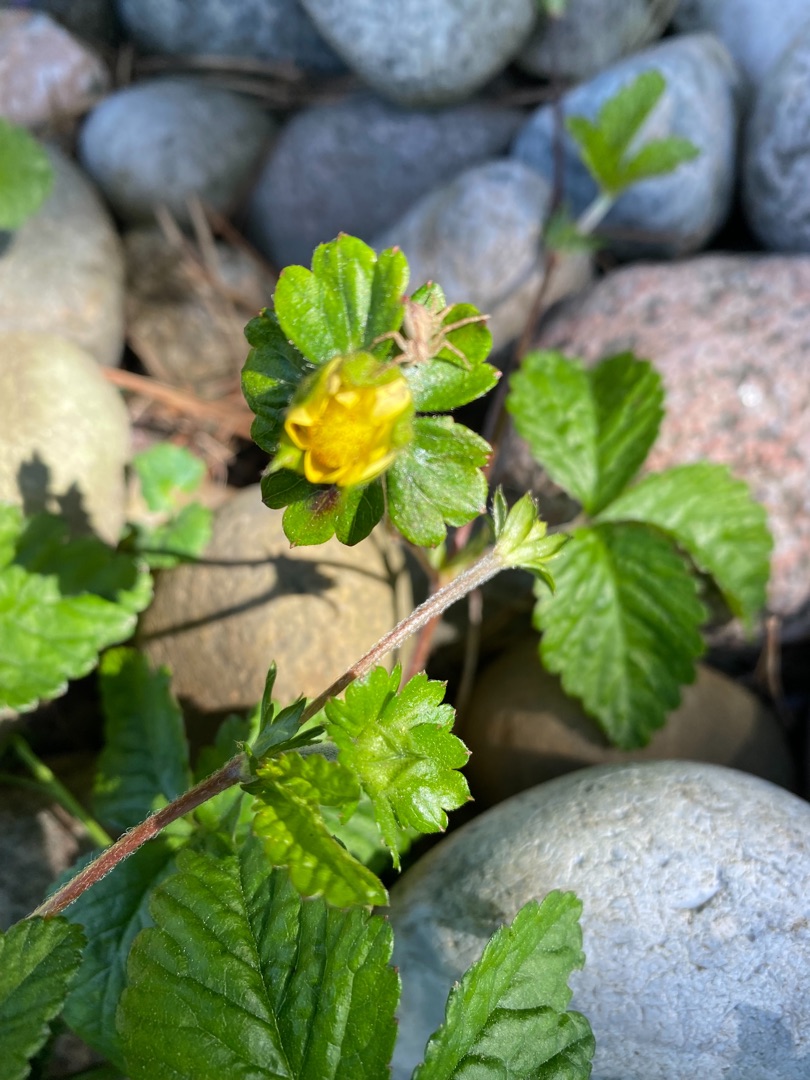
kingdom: Plantae
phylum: Tracheophyta
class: Magnoliopsida
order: Rosales
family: Rosaceae
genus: Potentilla
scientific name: Potentilla indica
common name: Indisk jordbær
